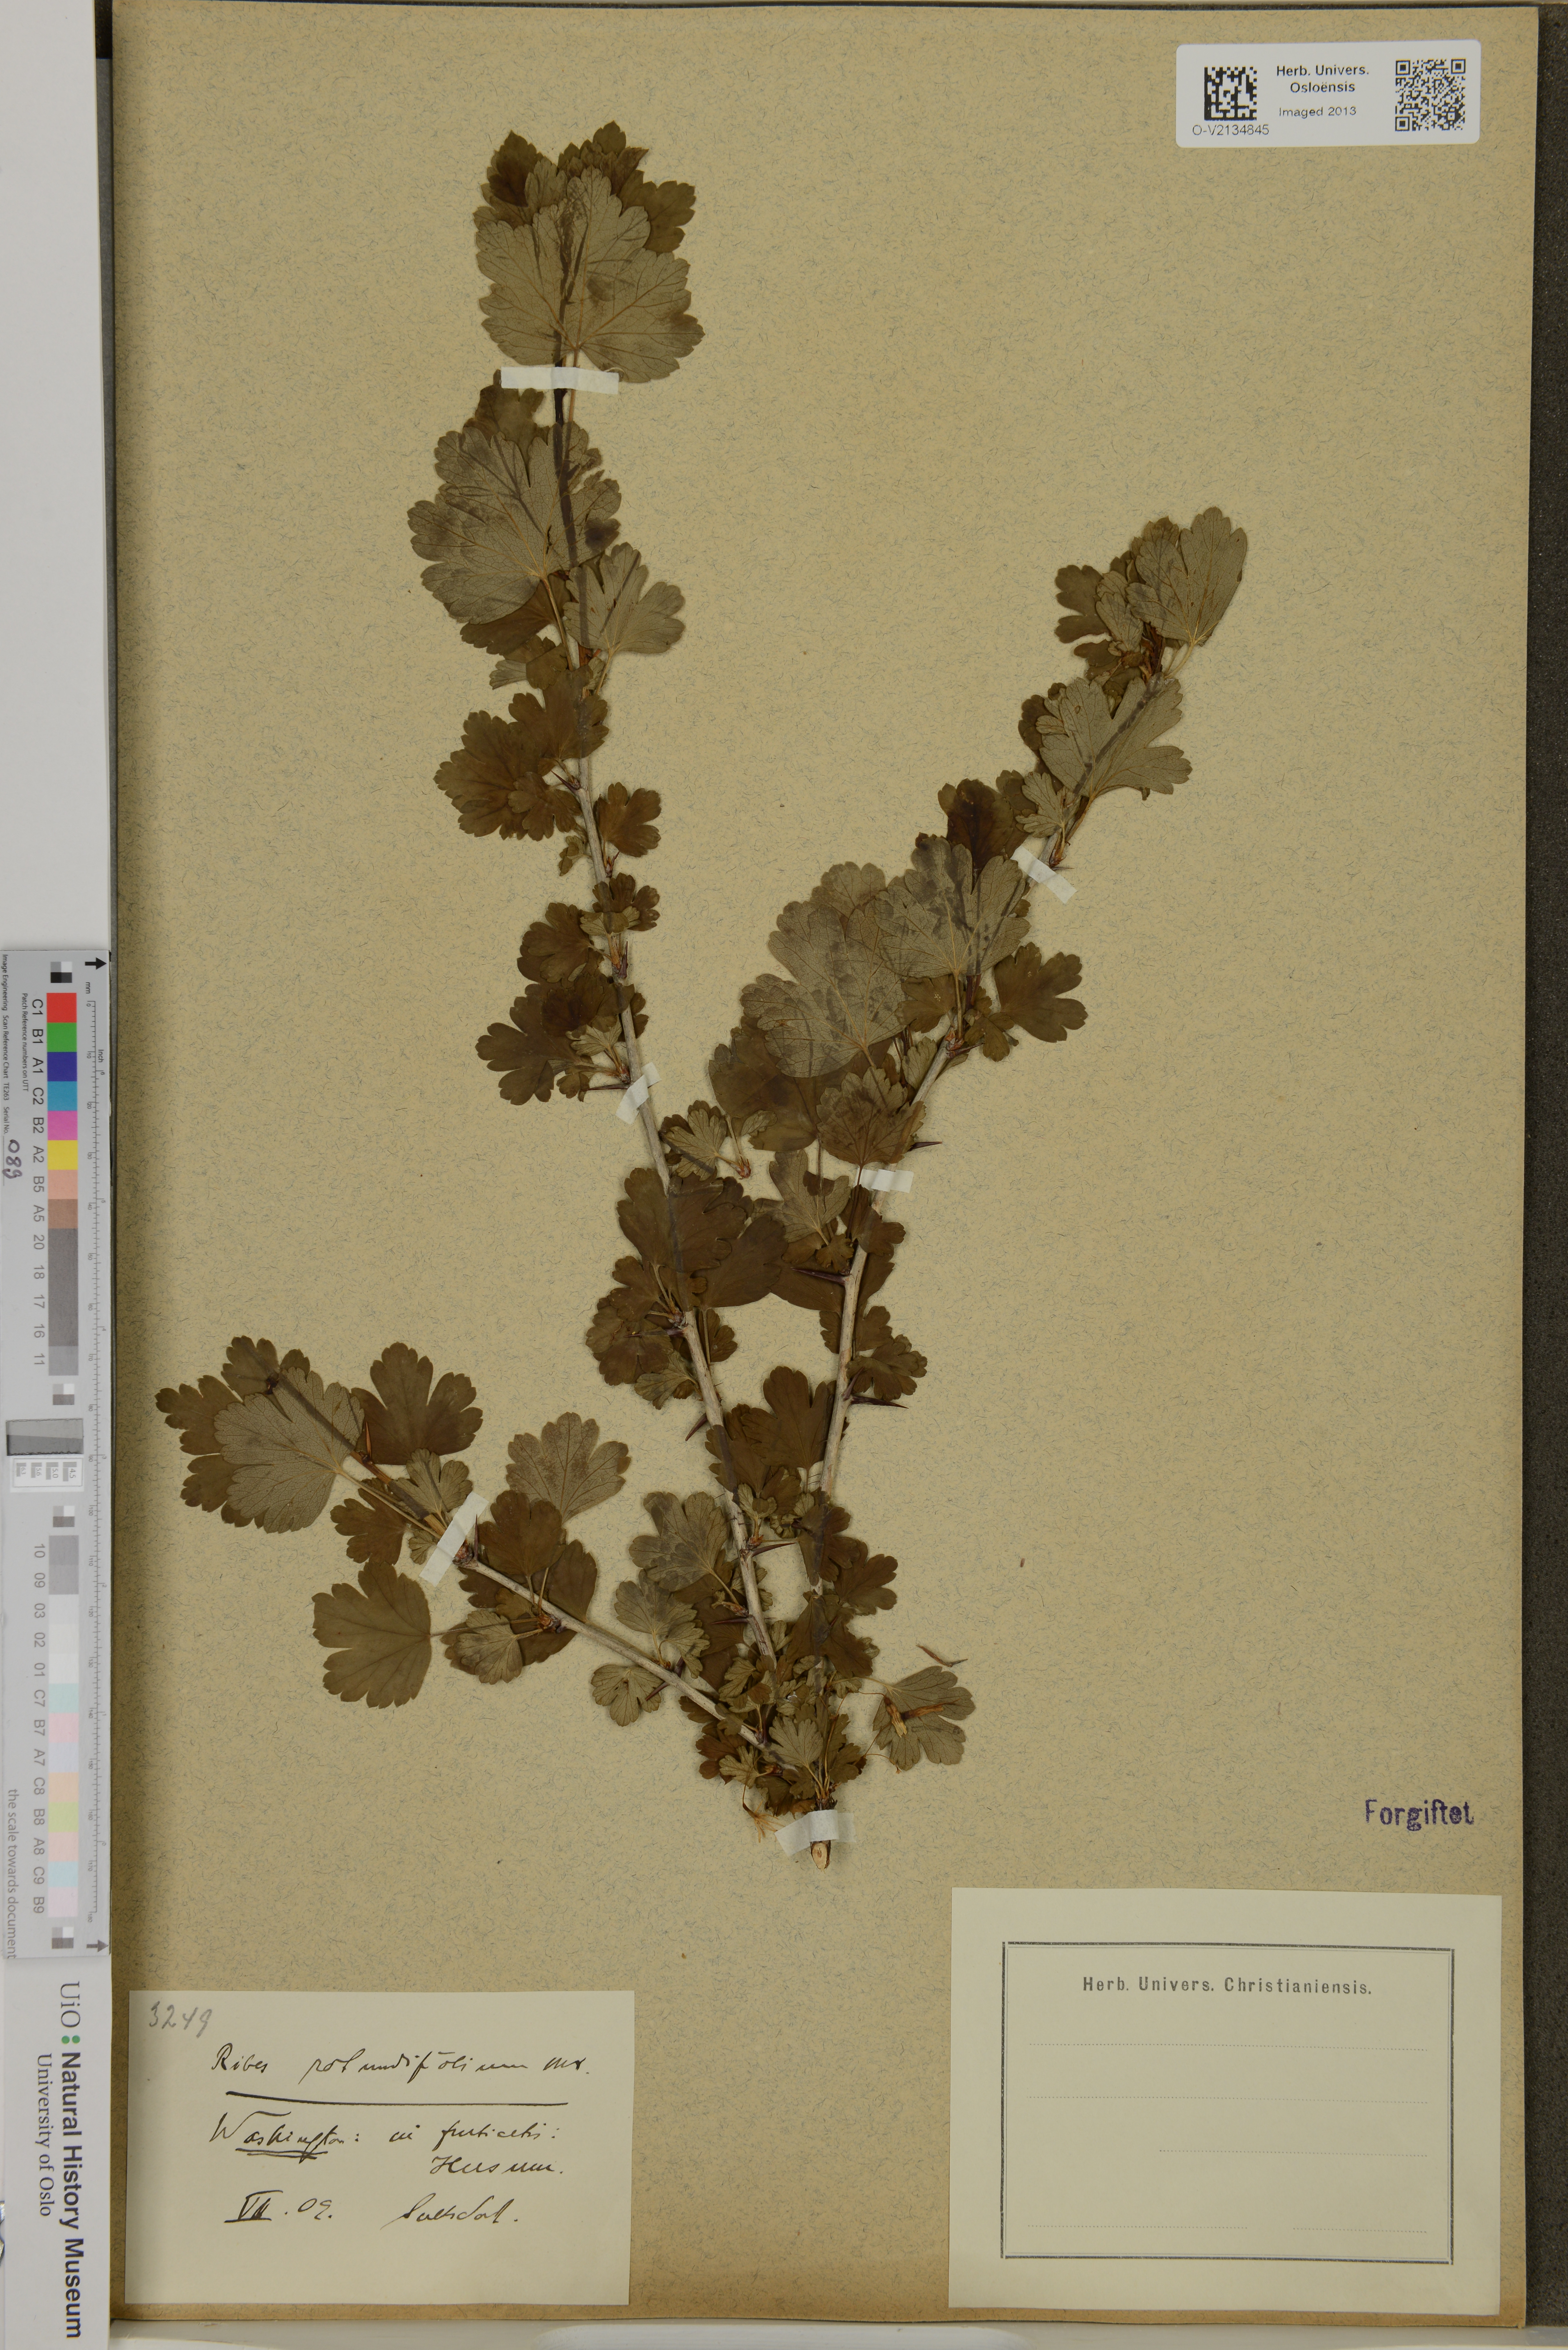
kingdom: Plantae
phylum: Tracheophyta
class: Magnoliopsida
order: Saxifragales
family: Grossulariaceae
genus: Ribes
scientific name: Ribes rotundifolium
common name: Appalachian gooseberry
